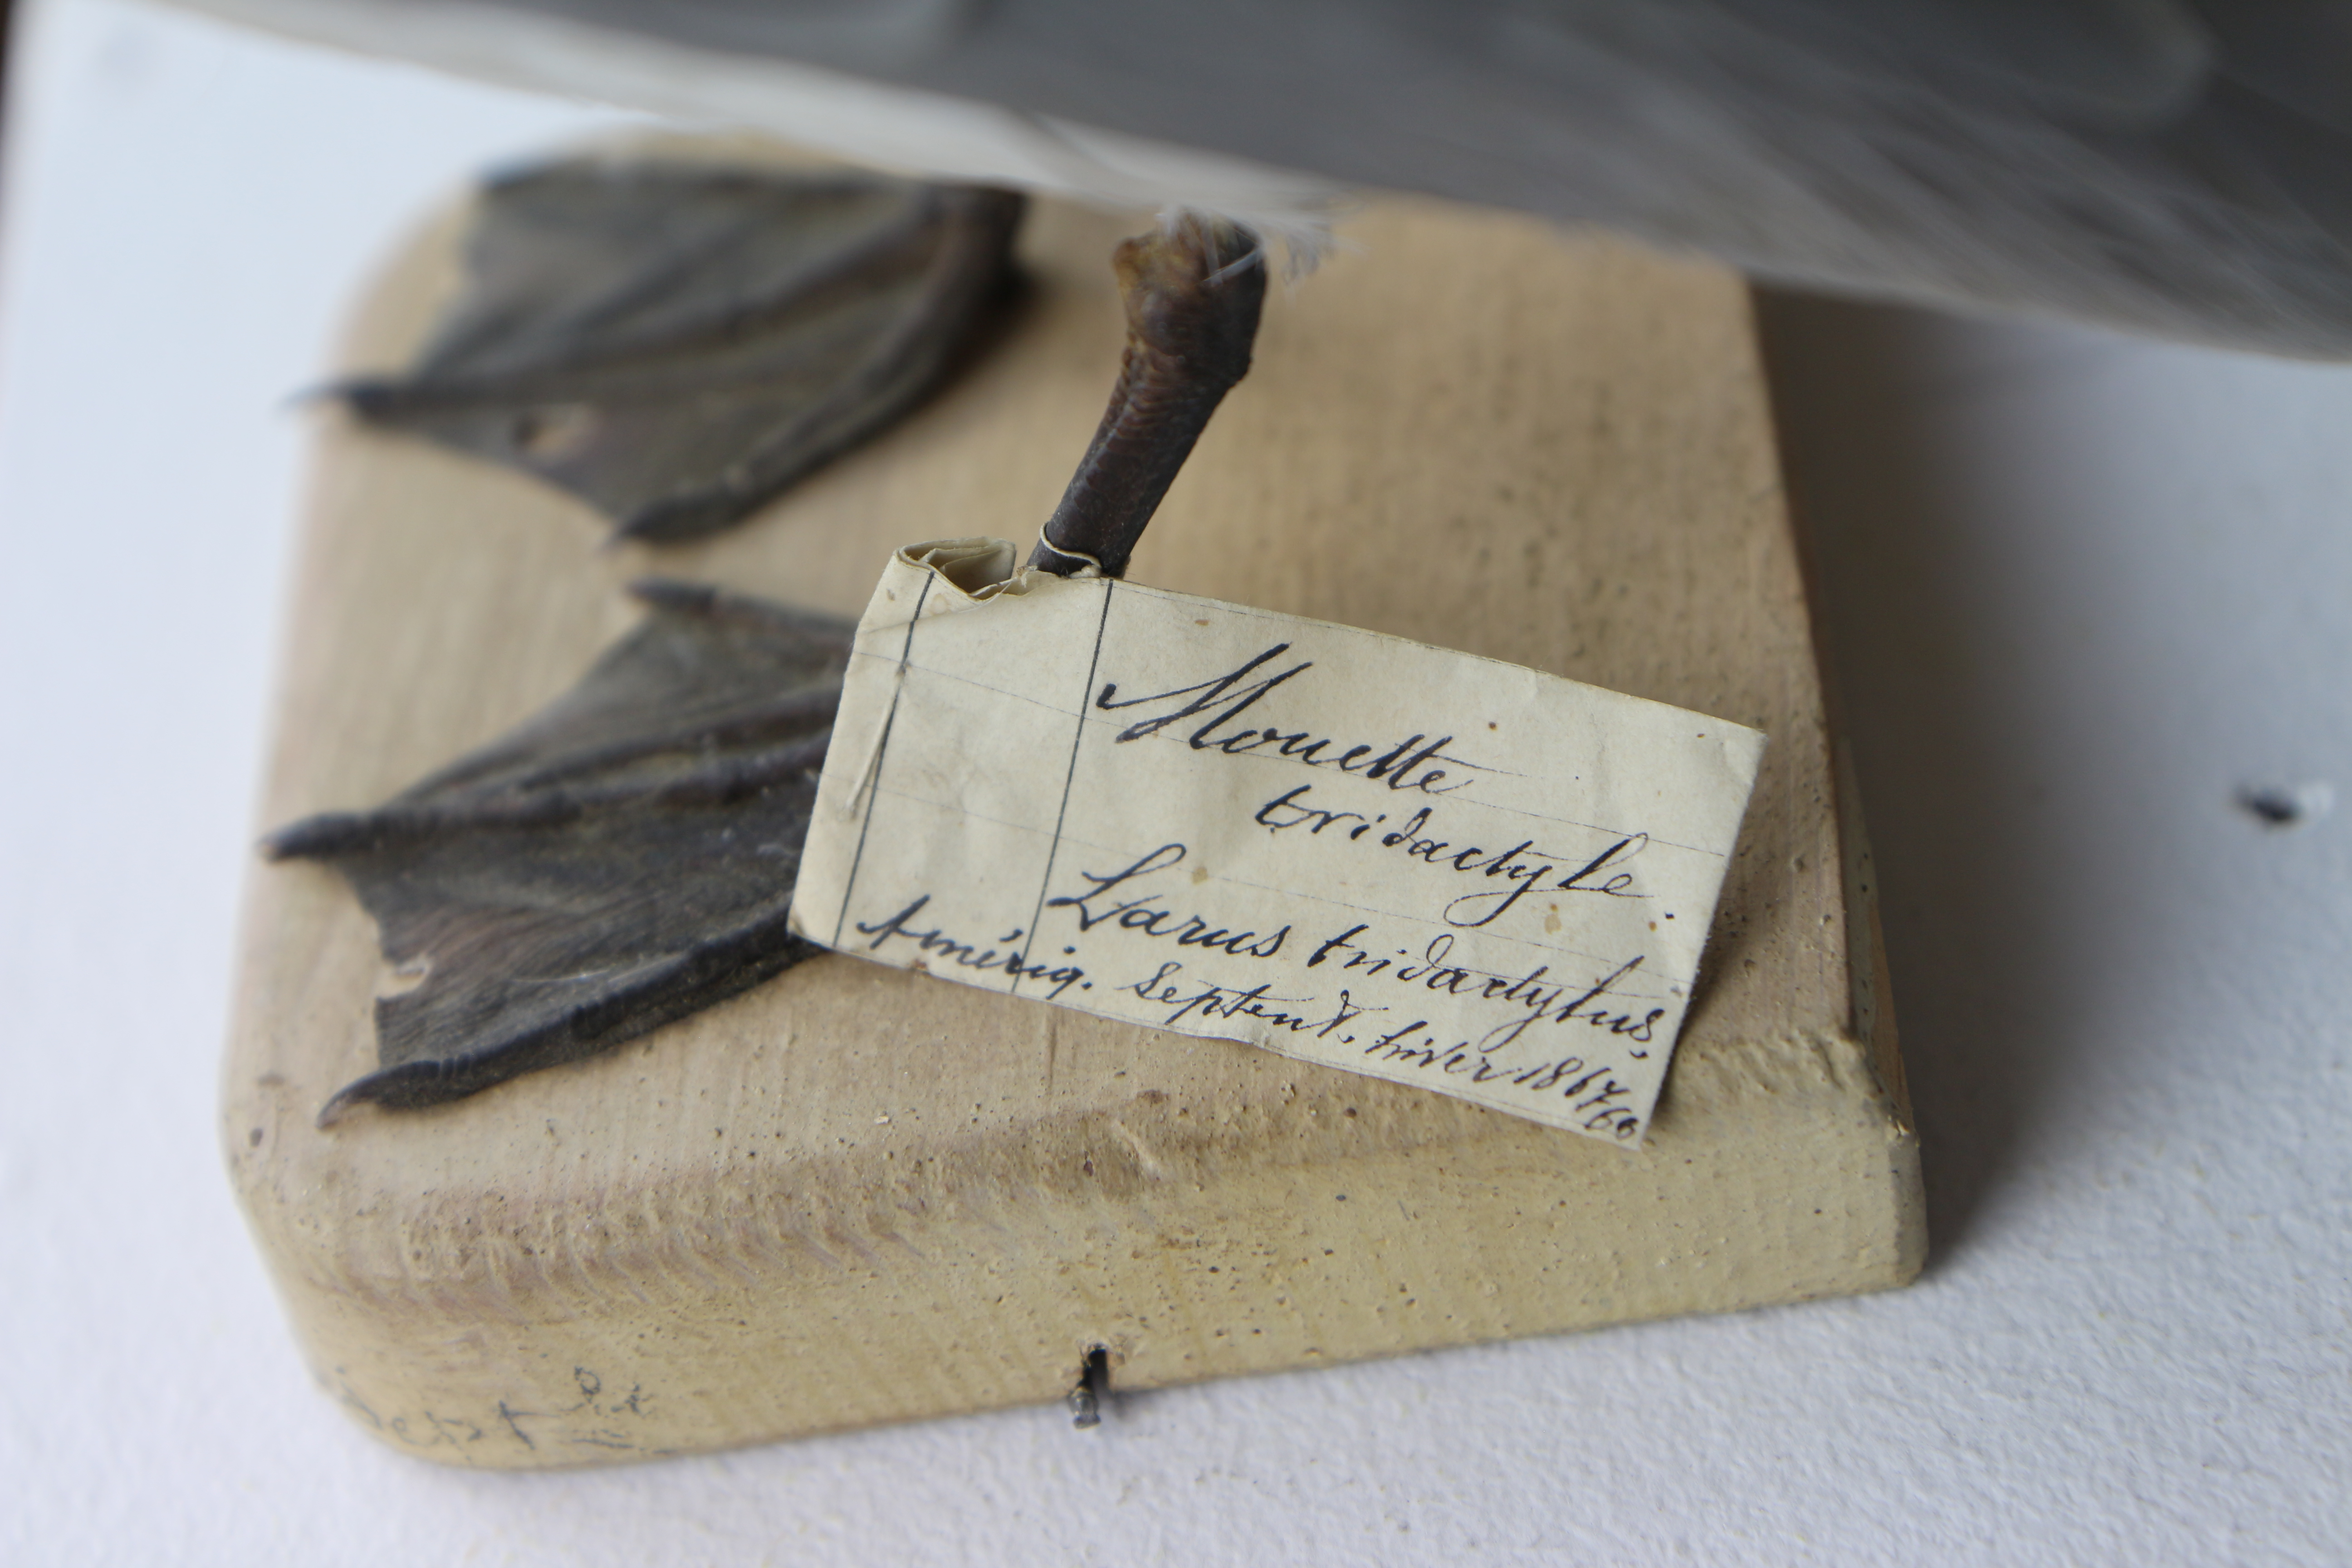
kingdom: Animalia
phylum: Chordata
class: Aves
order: Charadriiformes
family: Laridae
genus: Rissa
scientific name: Rissa tridactyla
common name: Black-legged kittiwake
